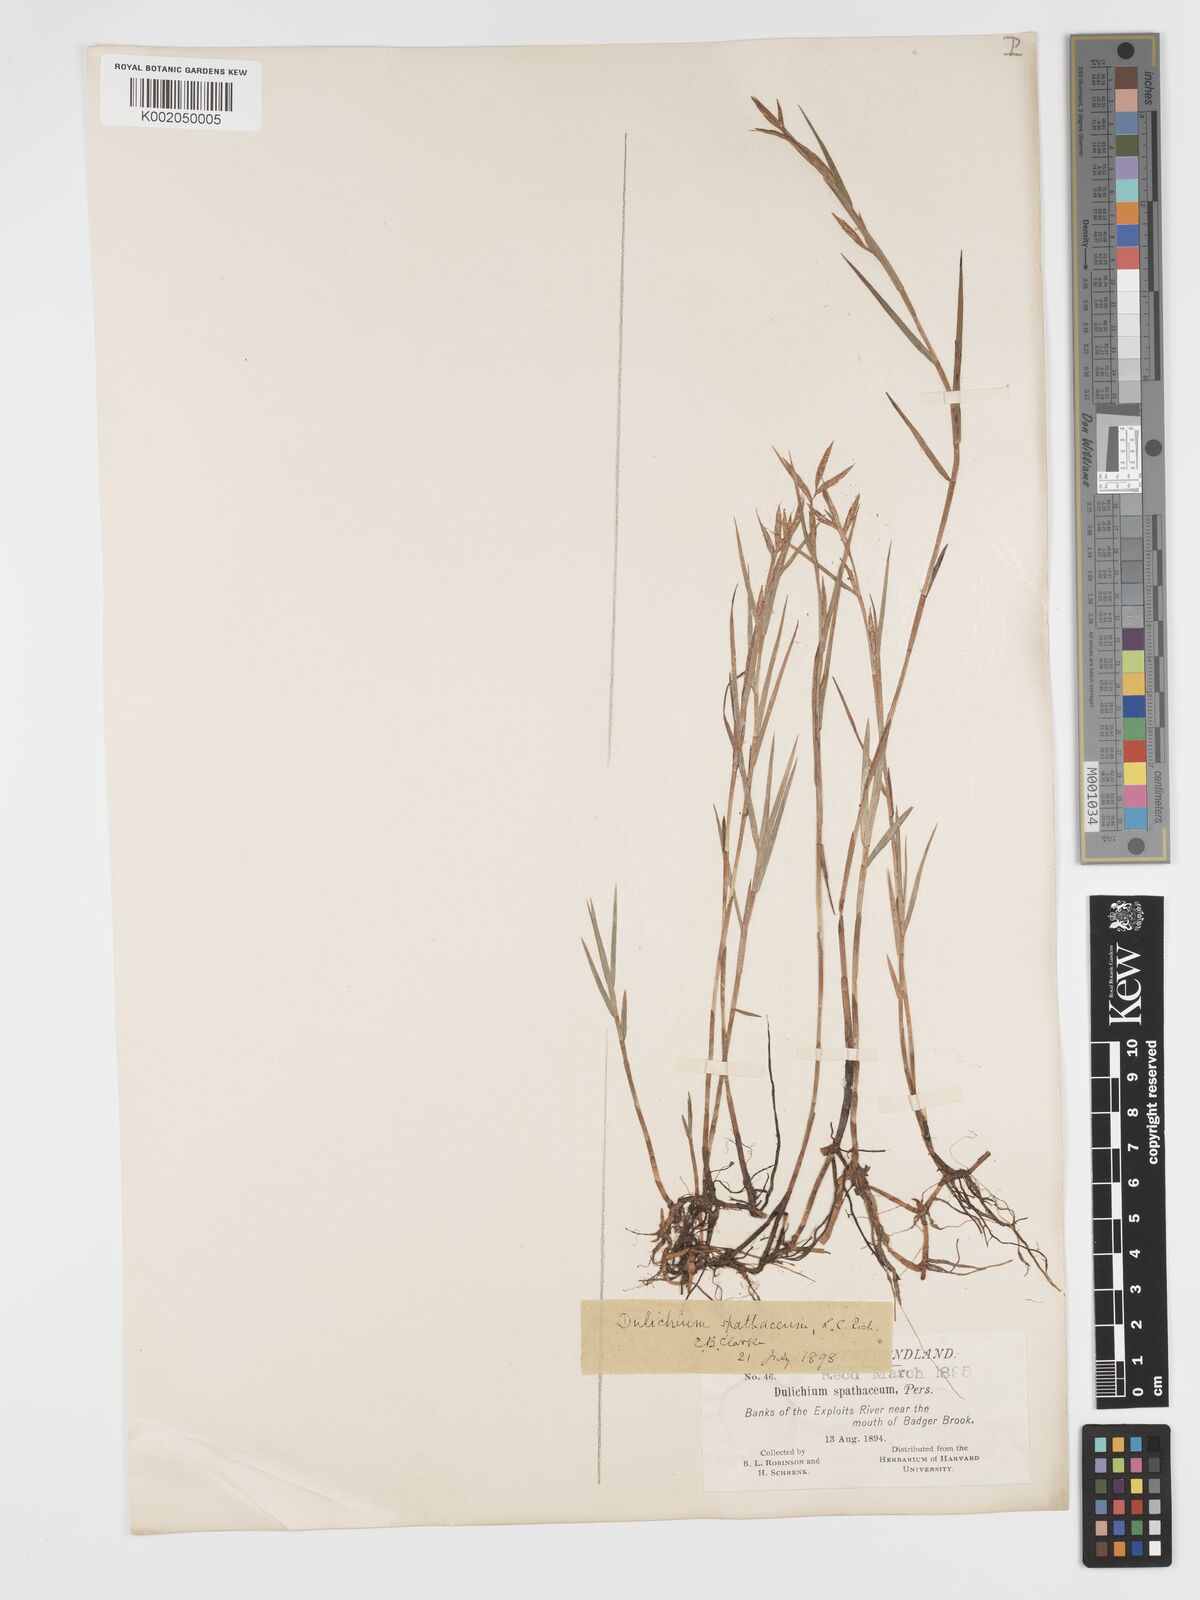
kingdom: Plantae
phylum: Tracheophyta
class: Liliopsida
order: Poales
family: Cyperaceae
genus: Dulichium
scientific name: Dulichium arundinaceum
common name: Three-way sedge
